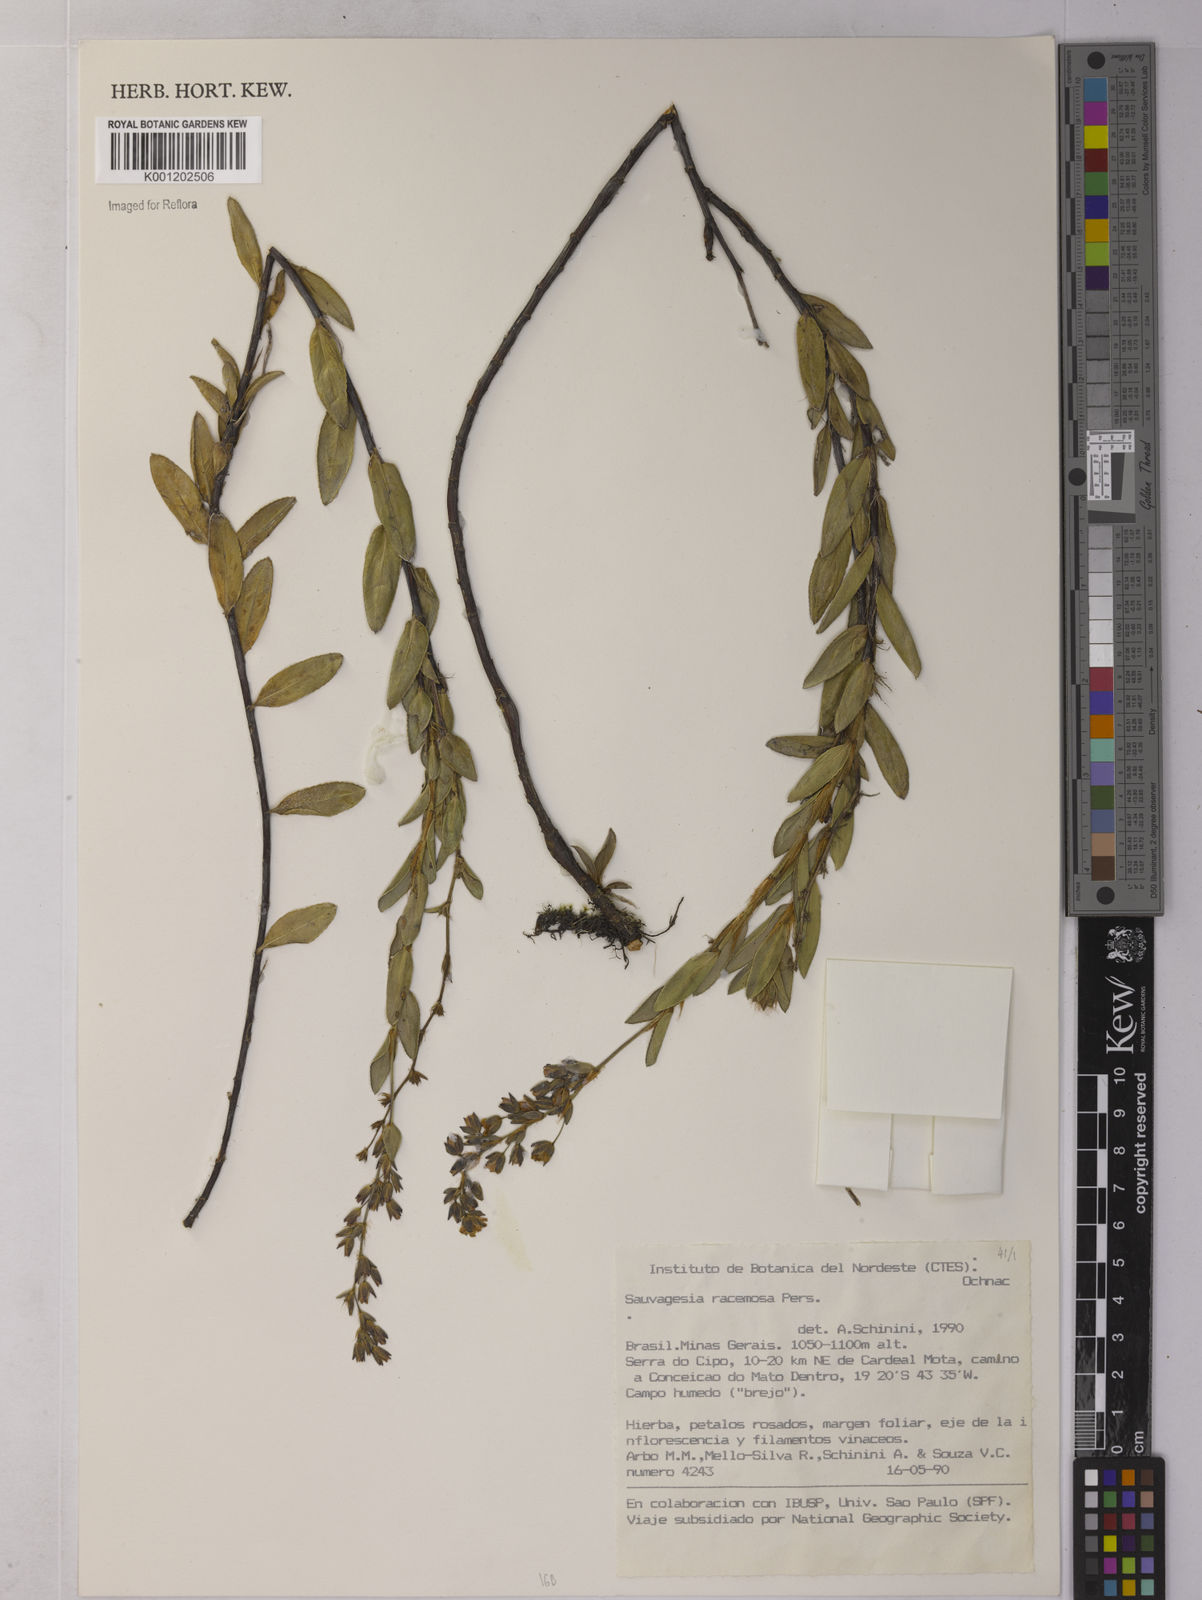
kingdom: Plantae
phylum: Tracheophyta
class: Magnoliopsida
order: Malpighiales
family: Ochnaceae
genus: Sauvagesia
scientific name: Sauvagesia racemosa
